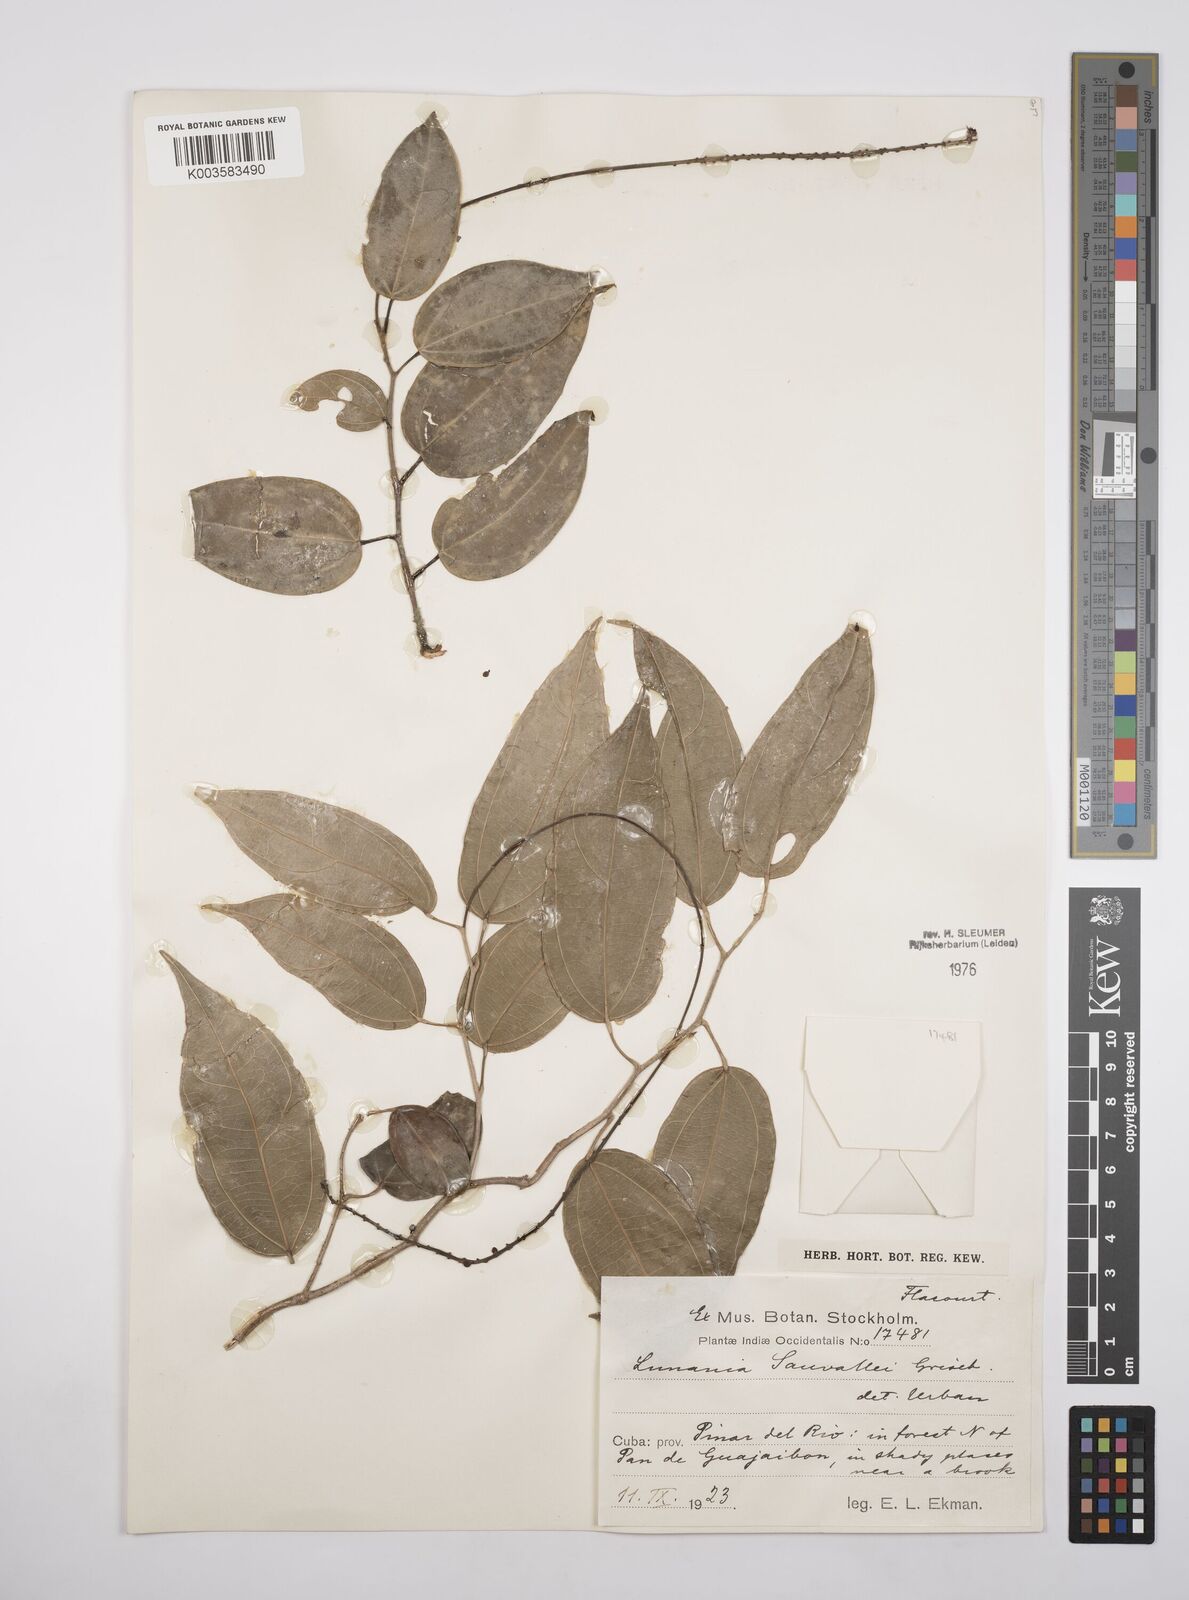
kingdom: Plantae
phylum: Tracheophyta
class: Magnoliopsida
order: Malpighiales
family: Salicaceae
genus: Lunania
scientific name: Lunania sauvallei
